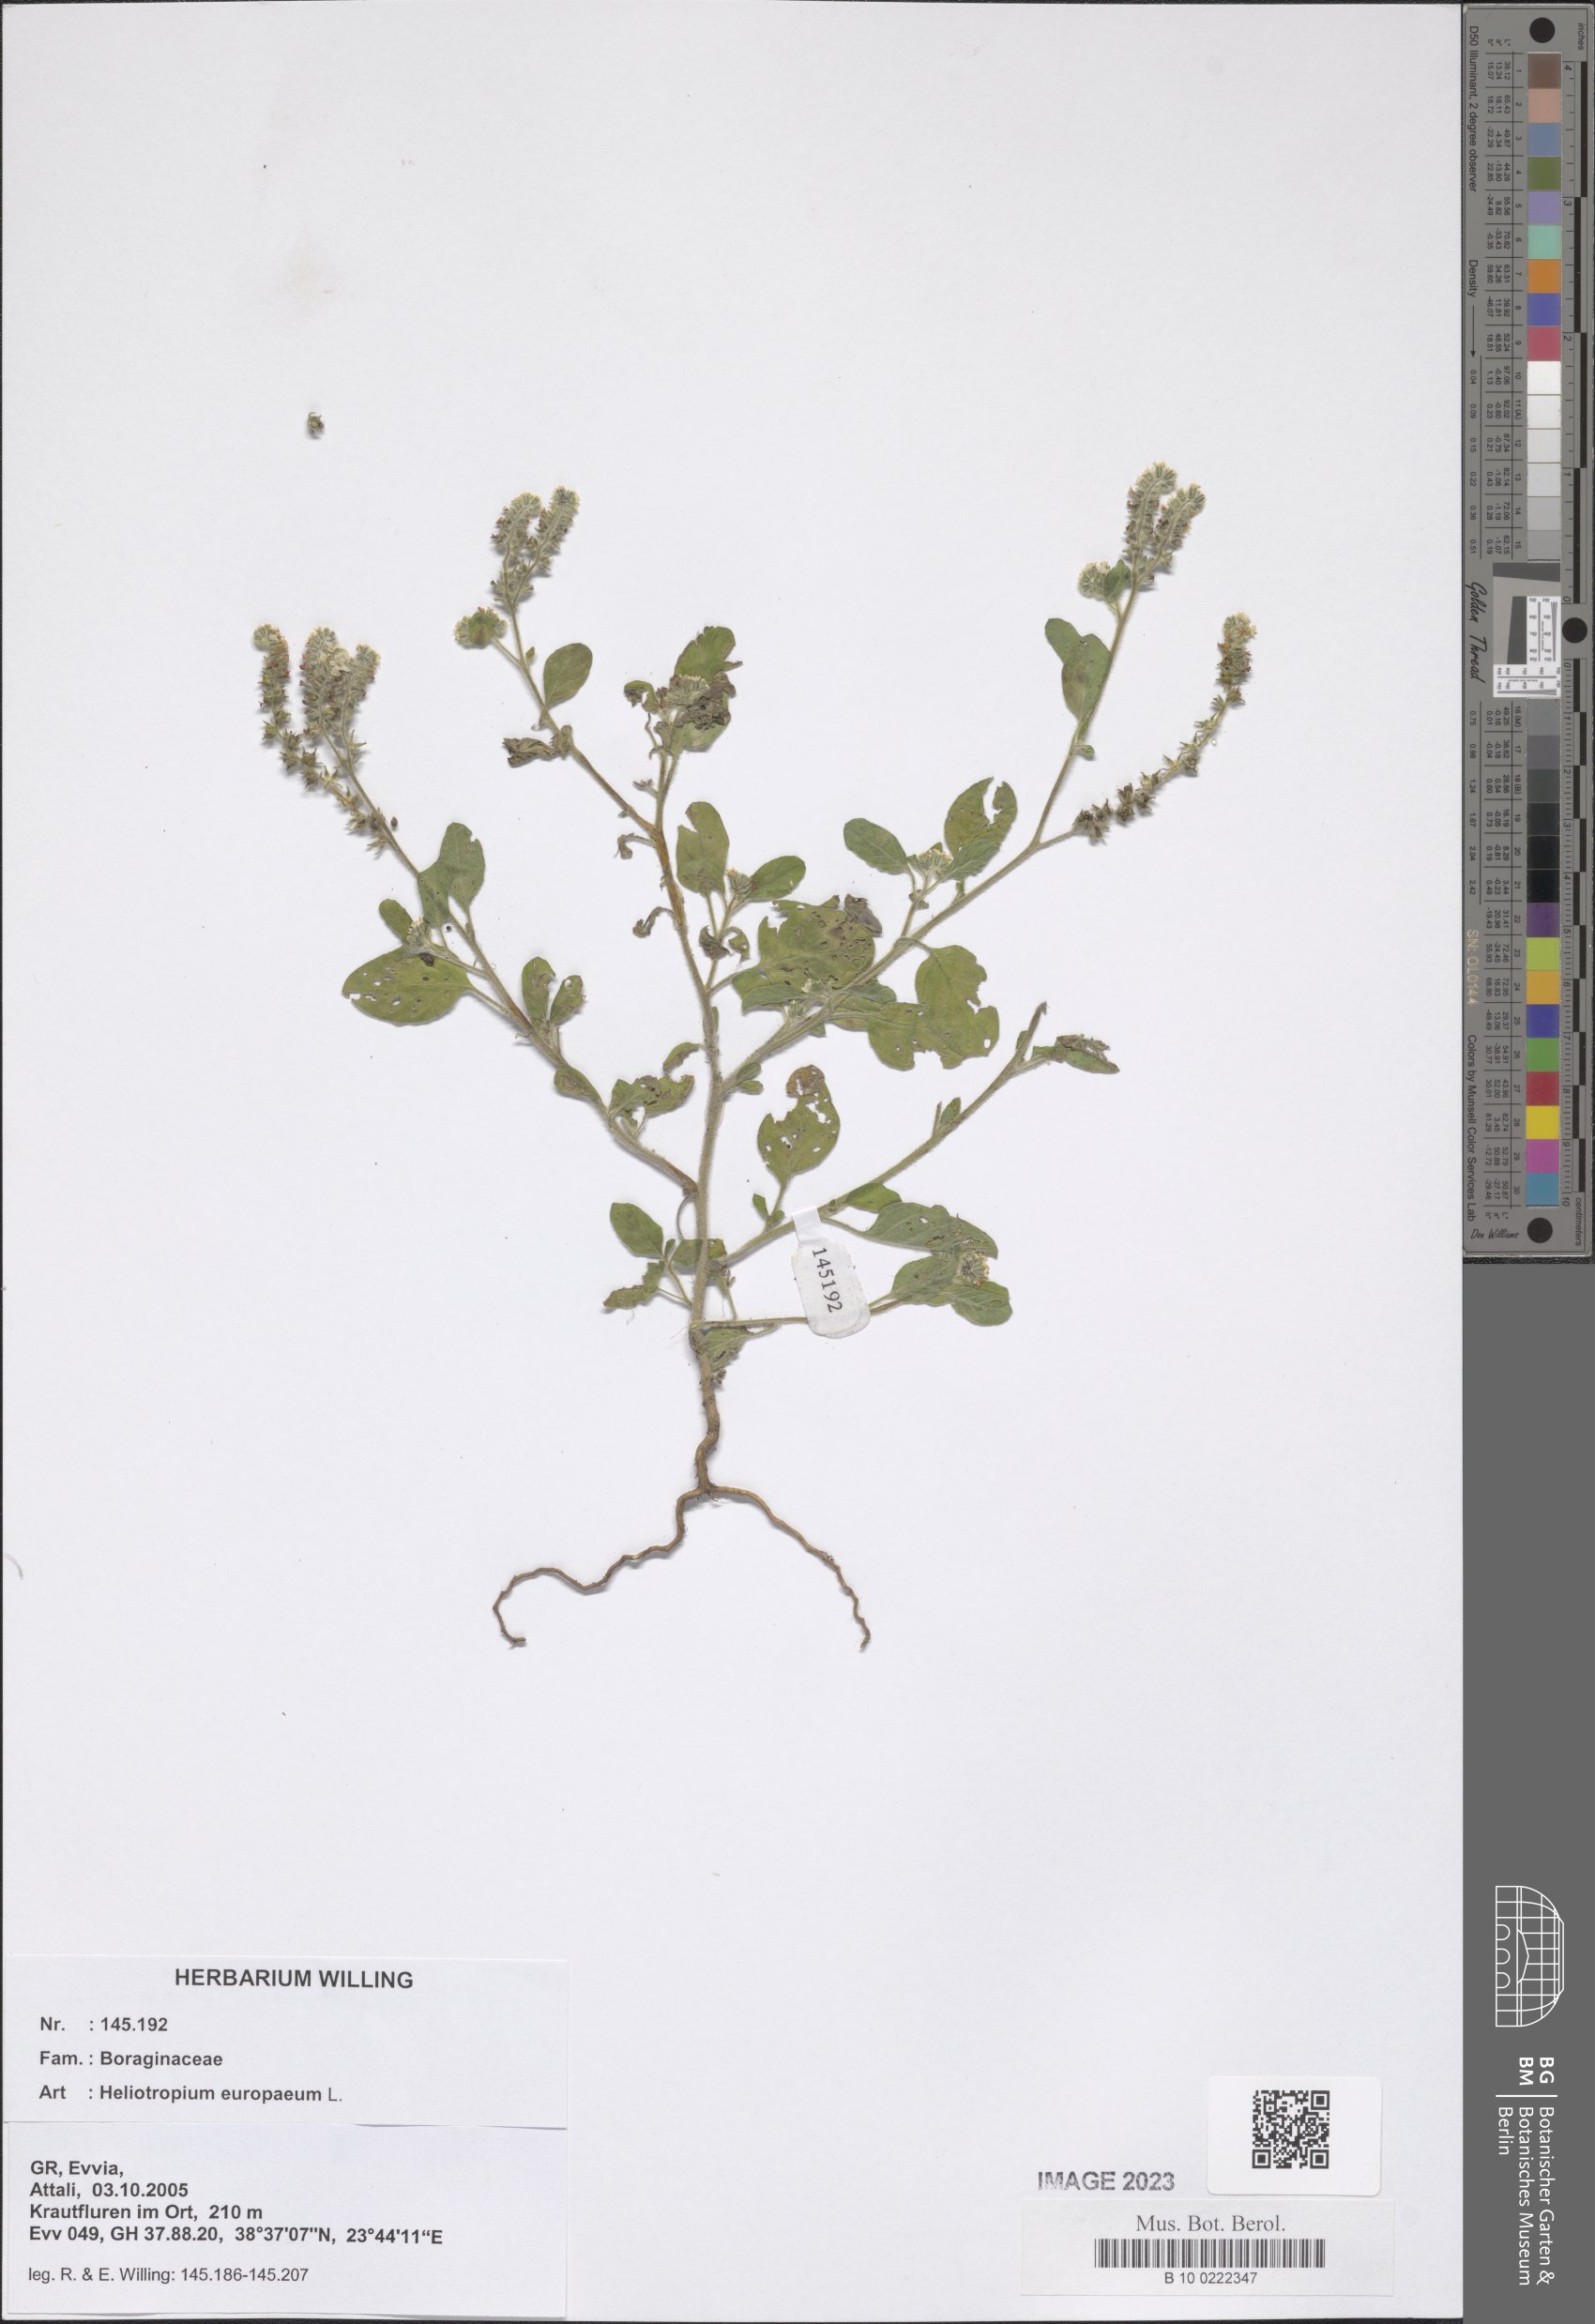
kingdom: Plantae
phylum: Tracheophyta
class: Magnoliopsida
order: Boraginales
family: Heliotropiaceae
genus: Heliotropium
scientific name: Heliotropium europaeum
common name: European heliotrope
